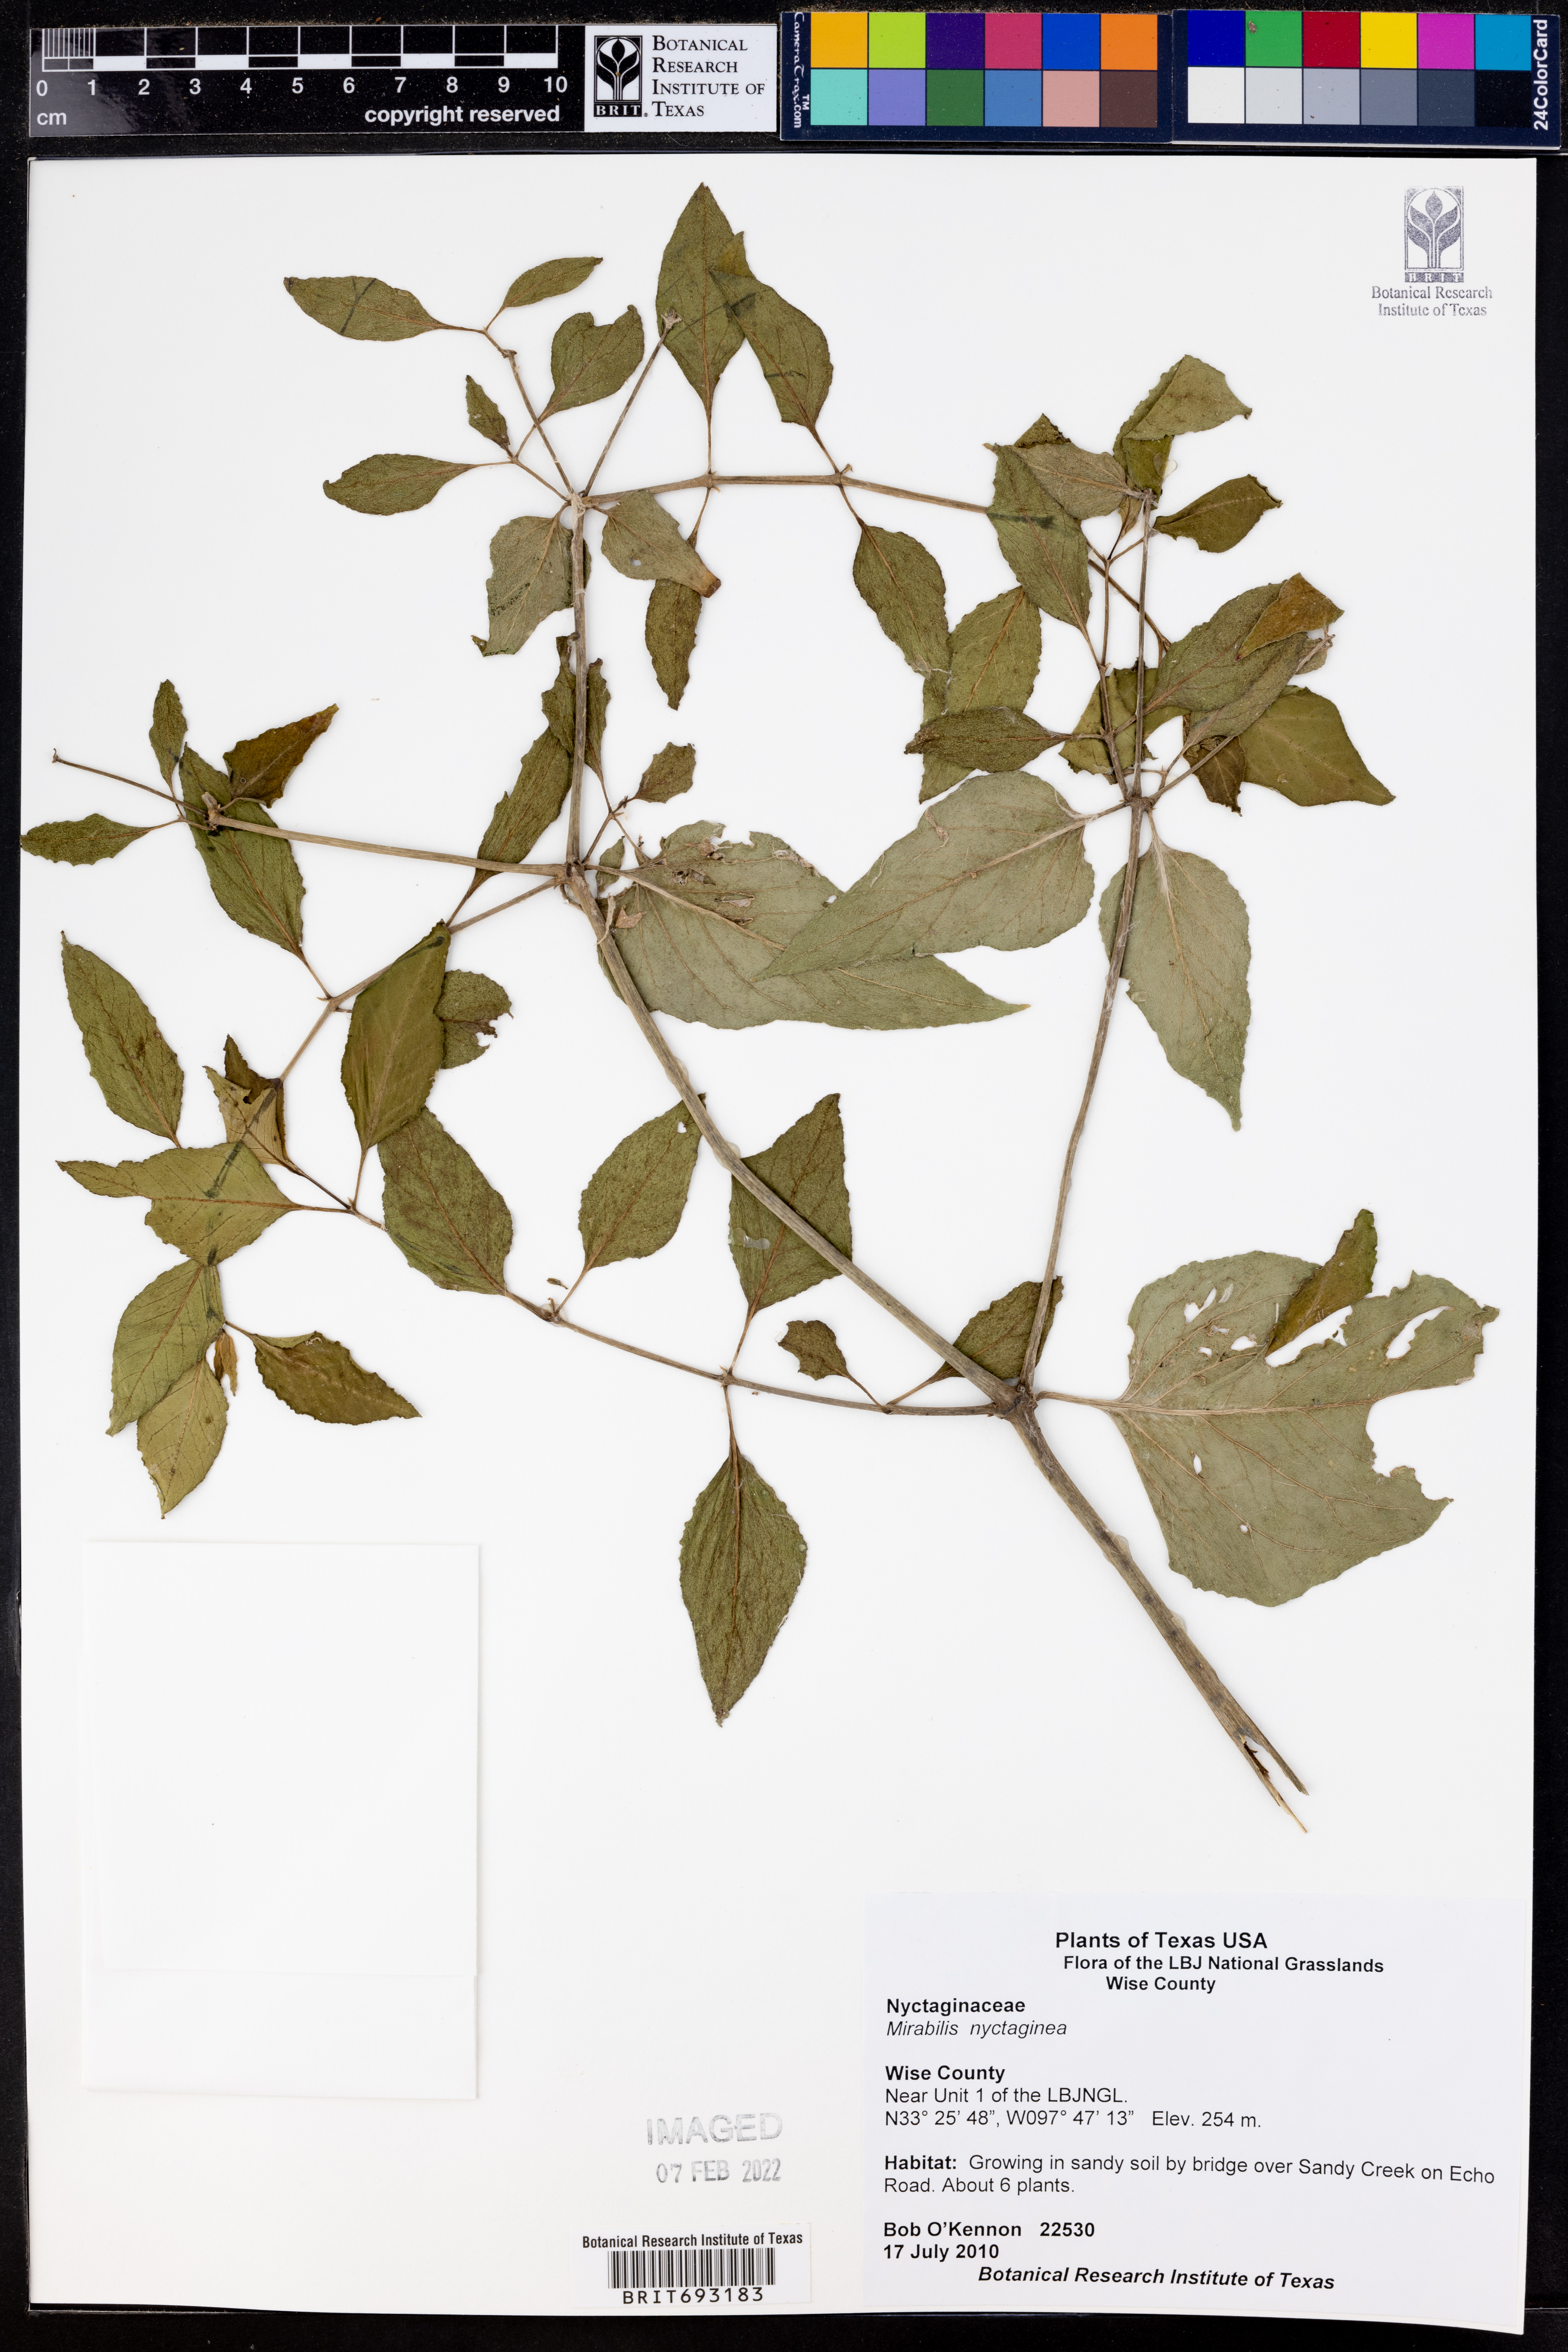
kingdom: Plantae
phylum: Tracheophyta
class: Magnoliopsida
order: Caryophyllales
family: Nyctaginaceae
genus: Mirabilis
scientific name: Mirabilis nyctaginea
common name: Umbrella wort
